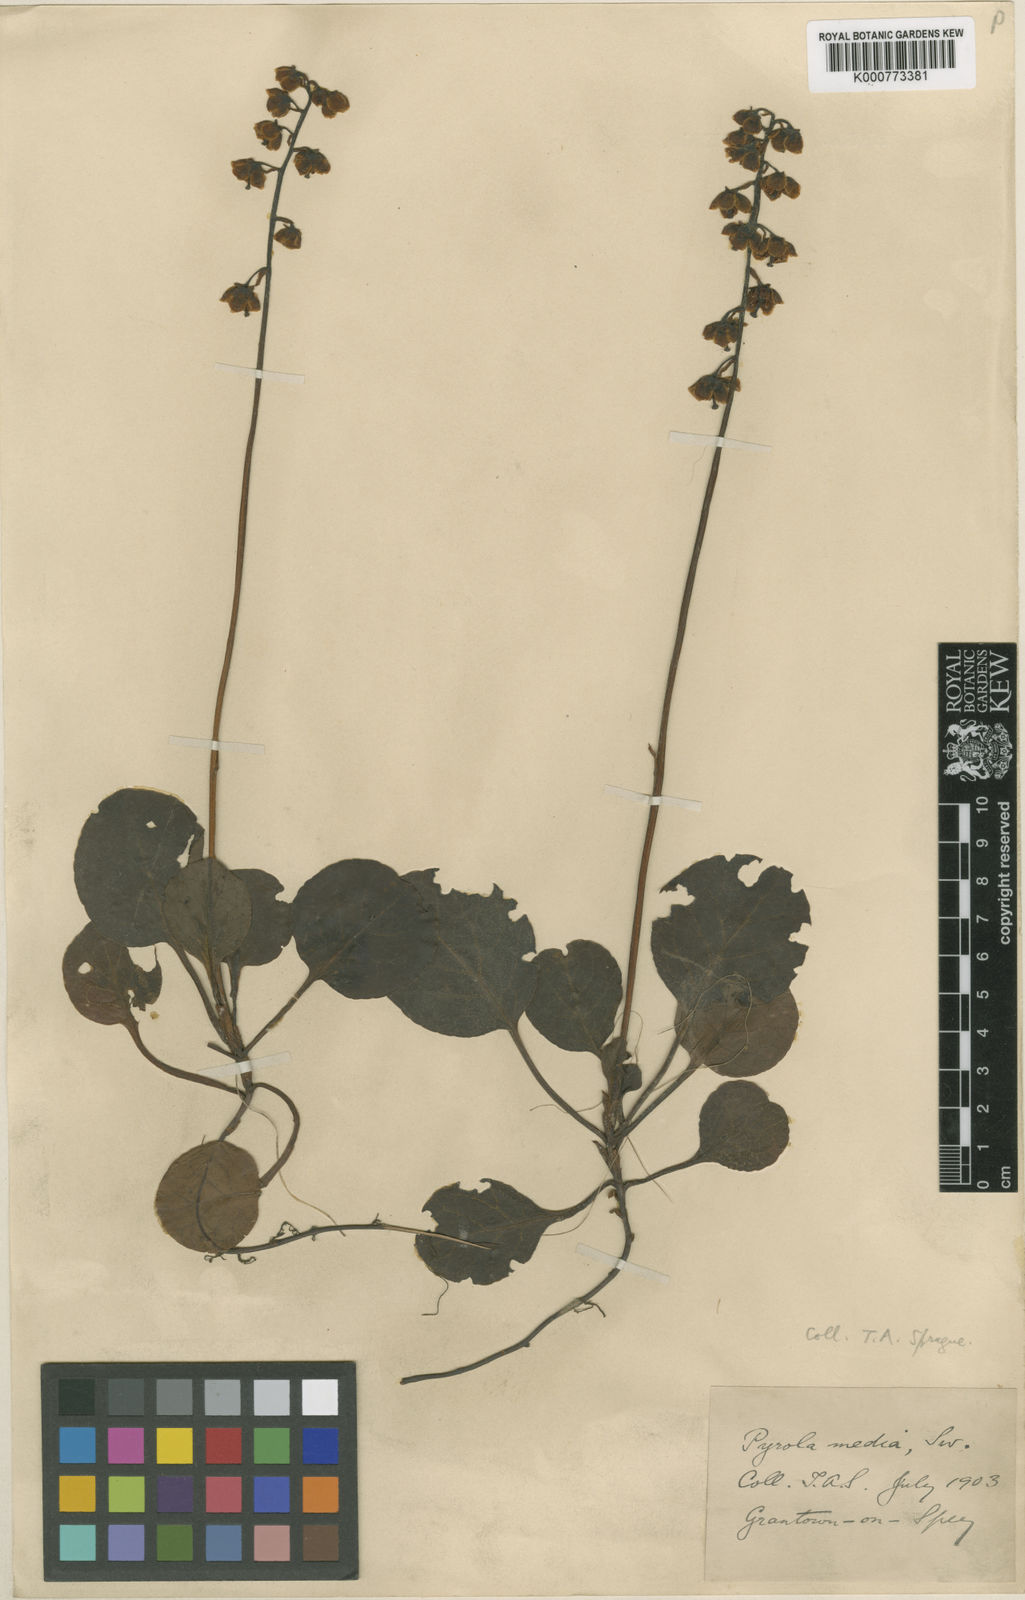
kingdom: Plantae
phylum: Tracheophyta
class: Magnoliopsida
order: Ericales
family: Ericaceae
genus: Pyrola
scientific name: Pyrola media
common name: Intermediate wintergreen
